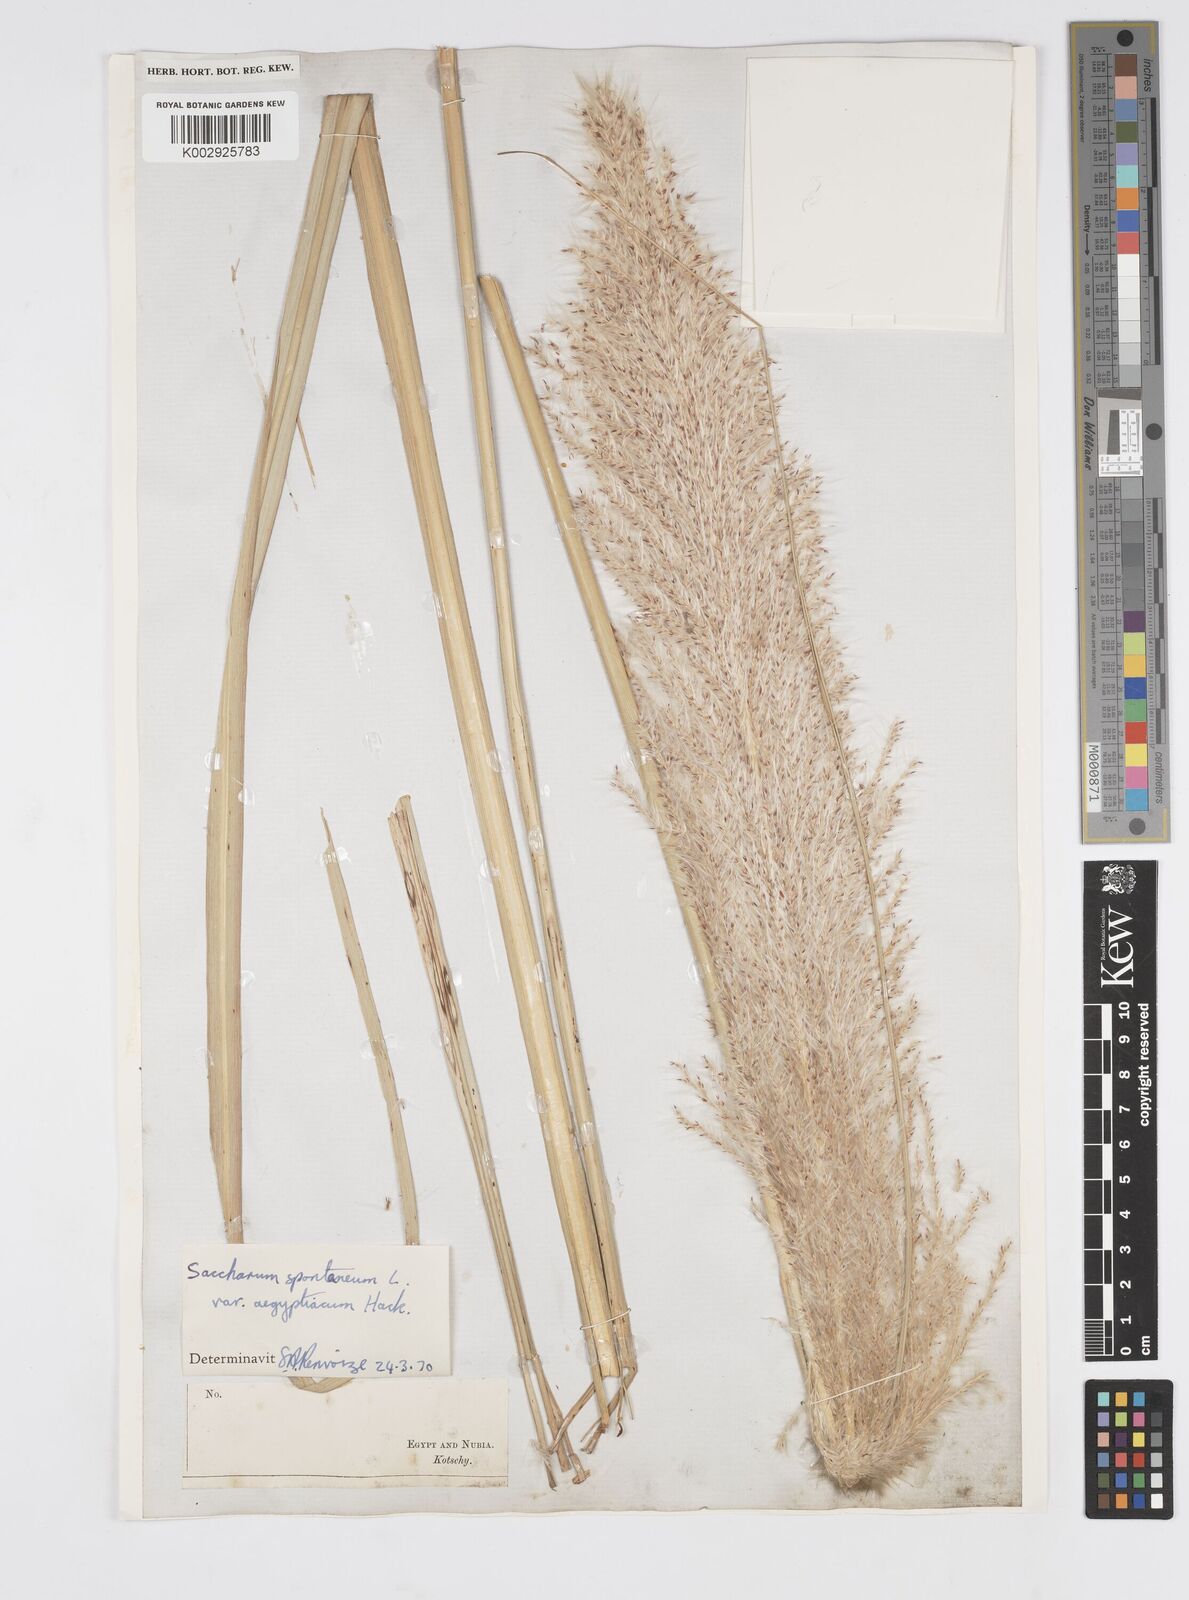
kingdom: Plantae
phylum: Tracheophyta
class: Liliopsida
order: Poales
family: Poaceae
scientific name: Poaceae
